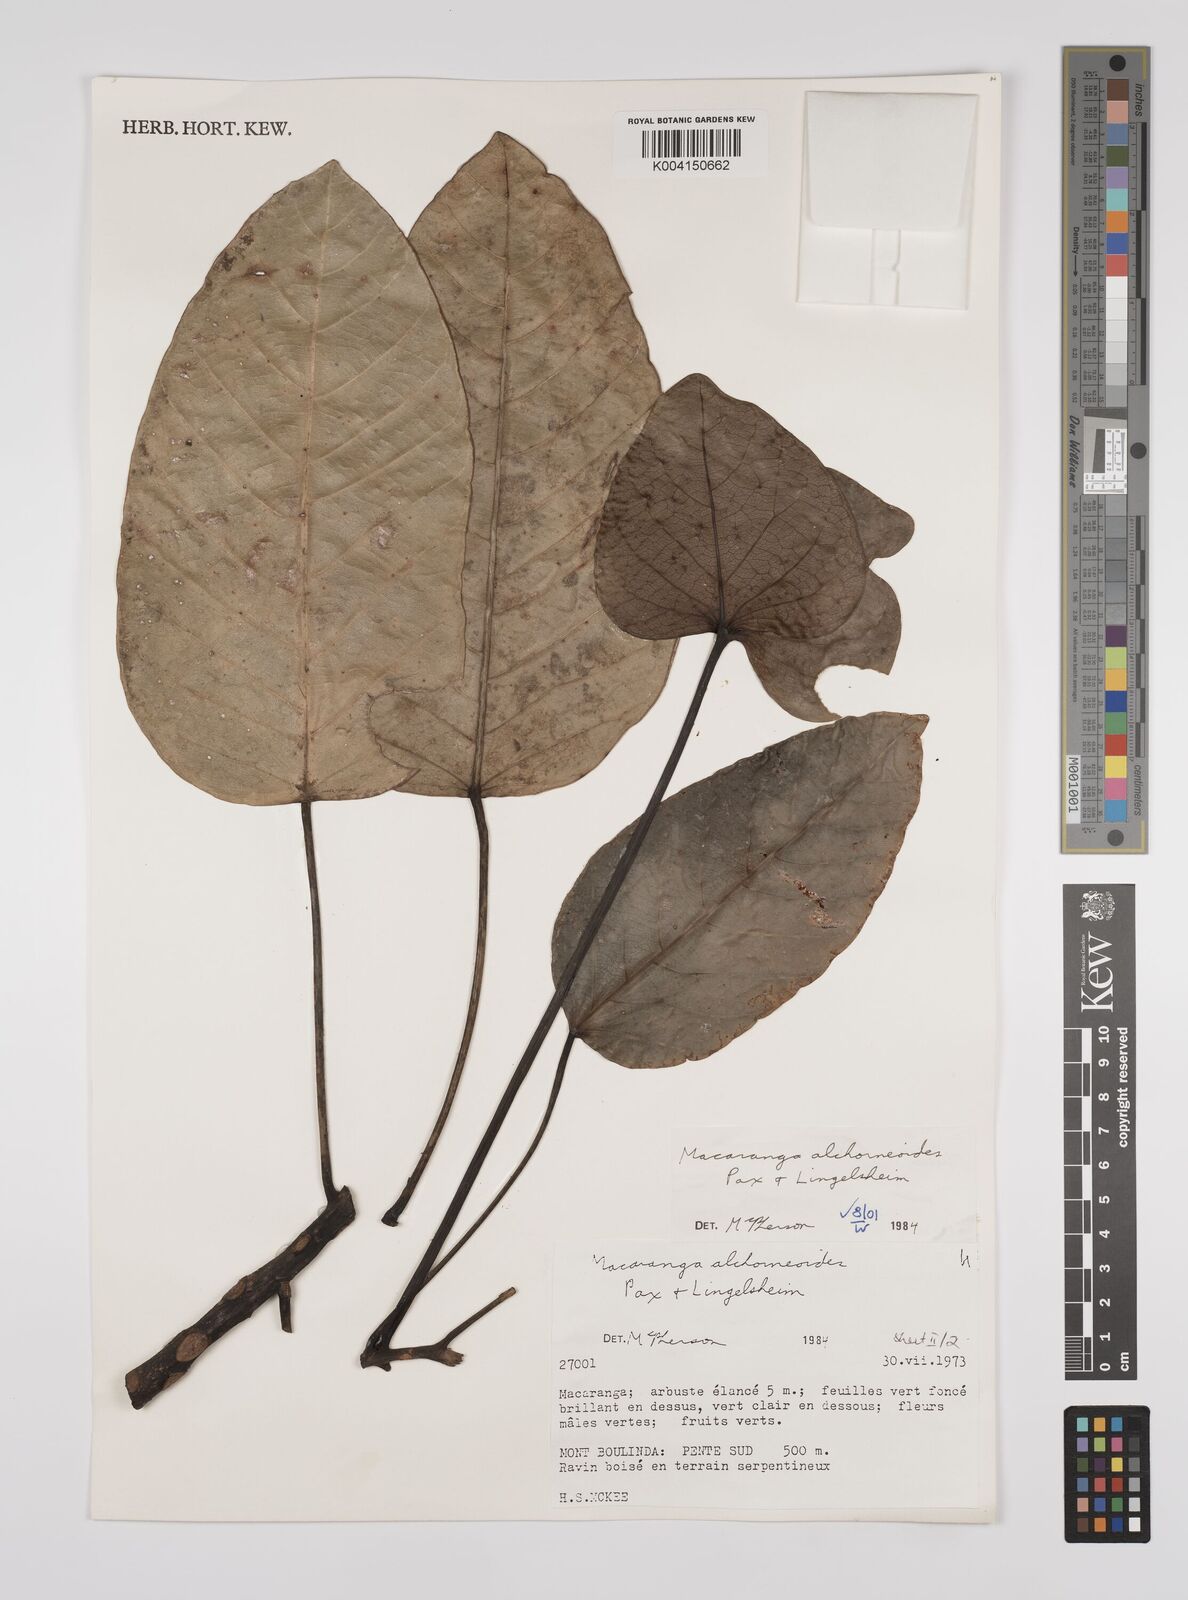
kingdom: Plantae
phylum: Tracheophyta
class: Magnoliopsida
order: Malpighiales
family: Euphorbiaceae
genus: Macaranga
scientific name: Macaranga alchorneoides
